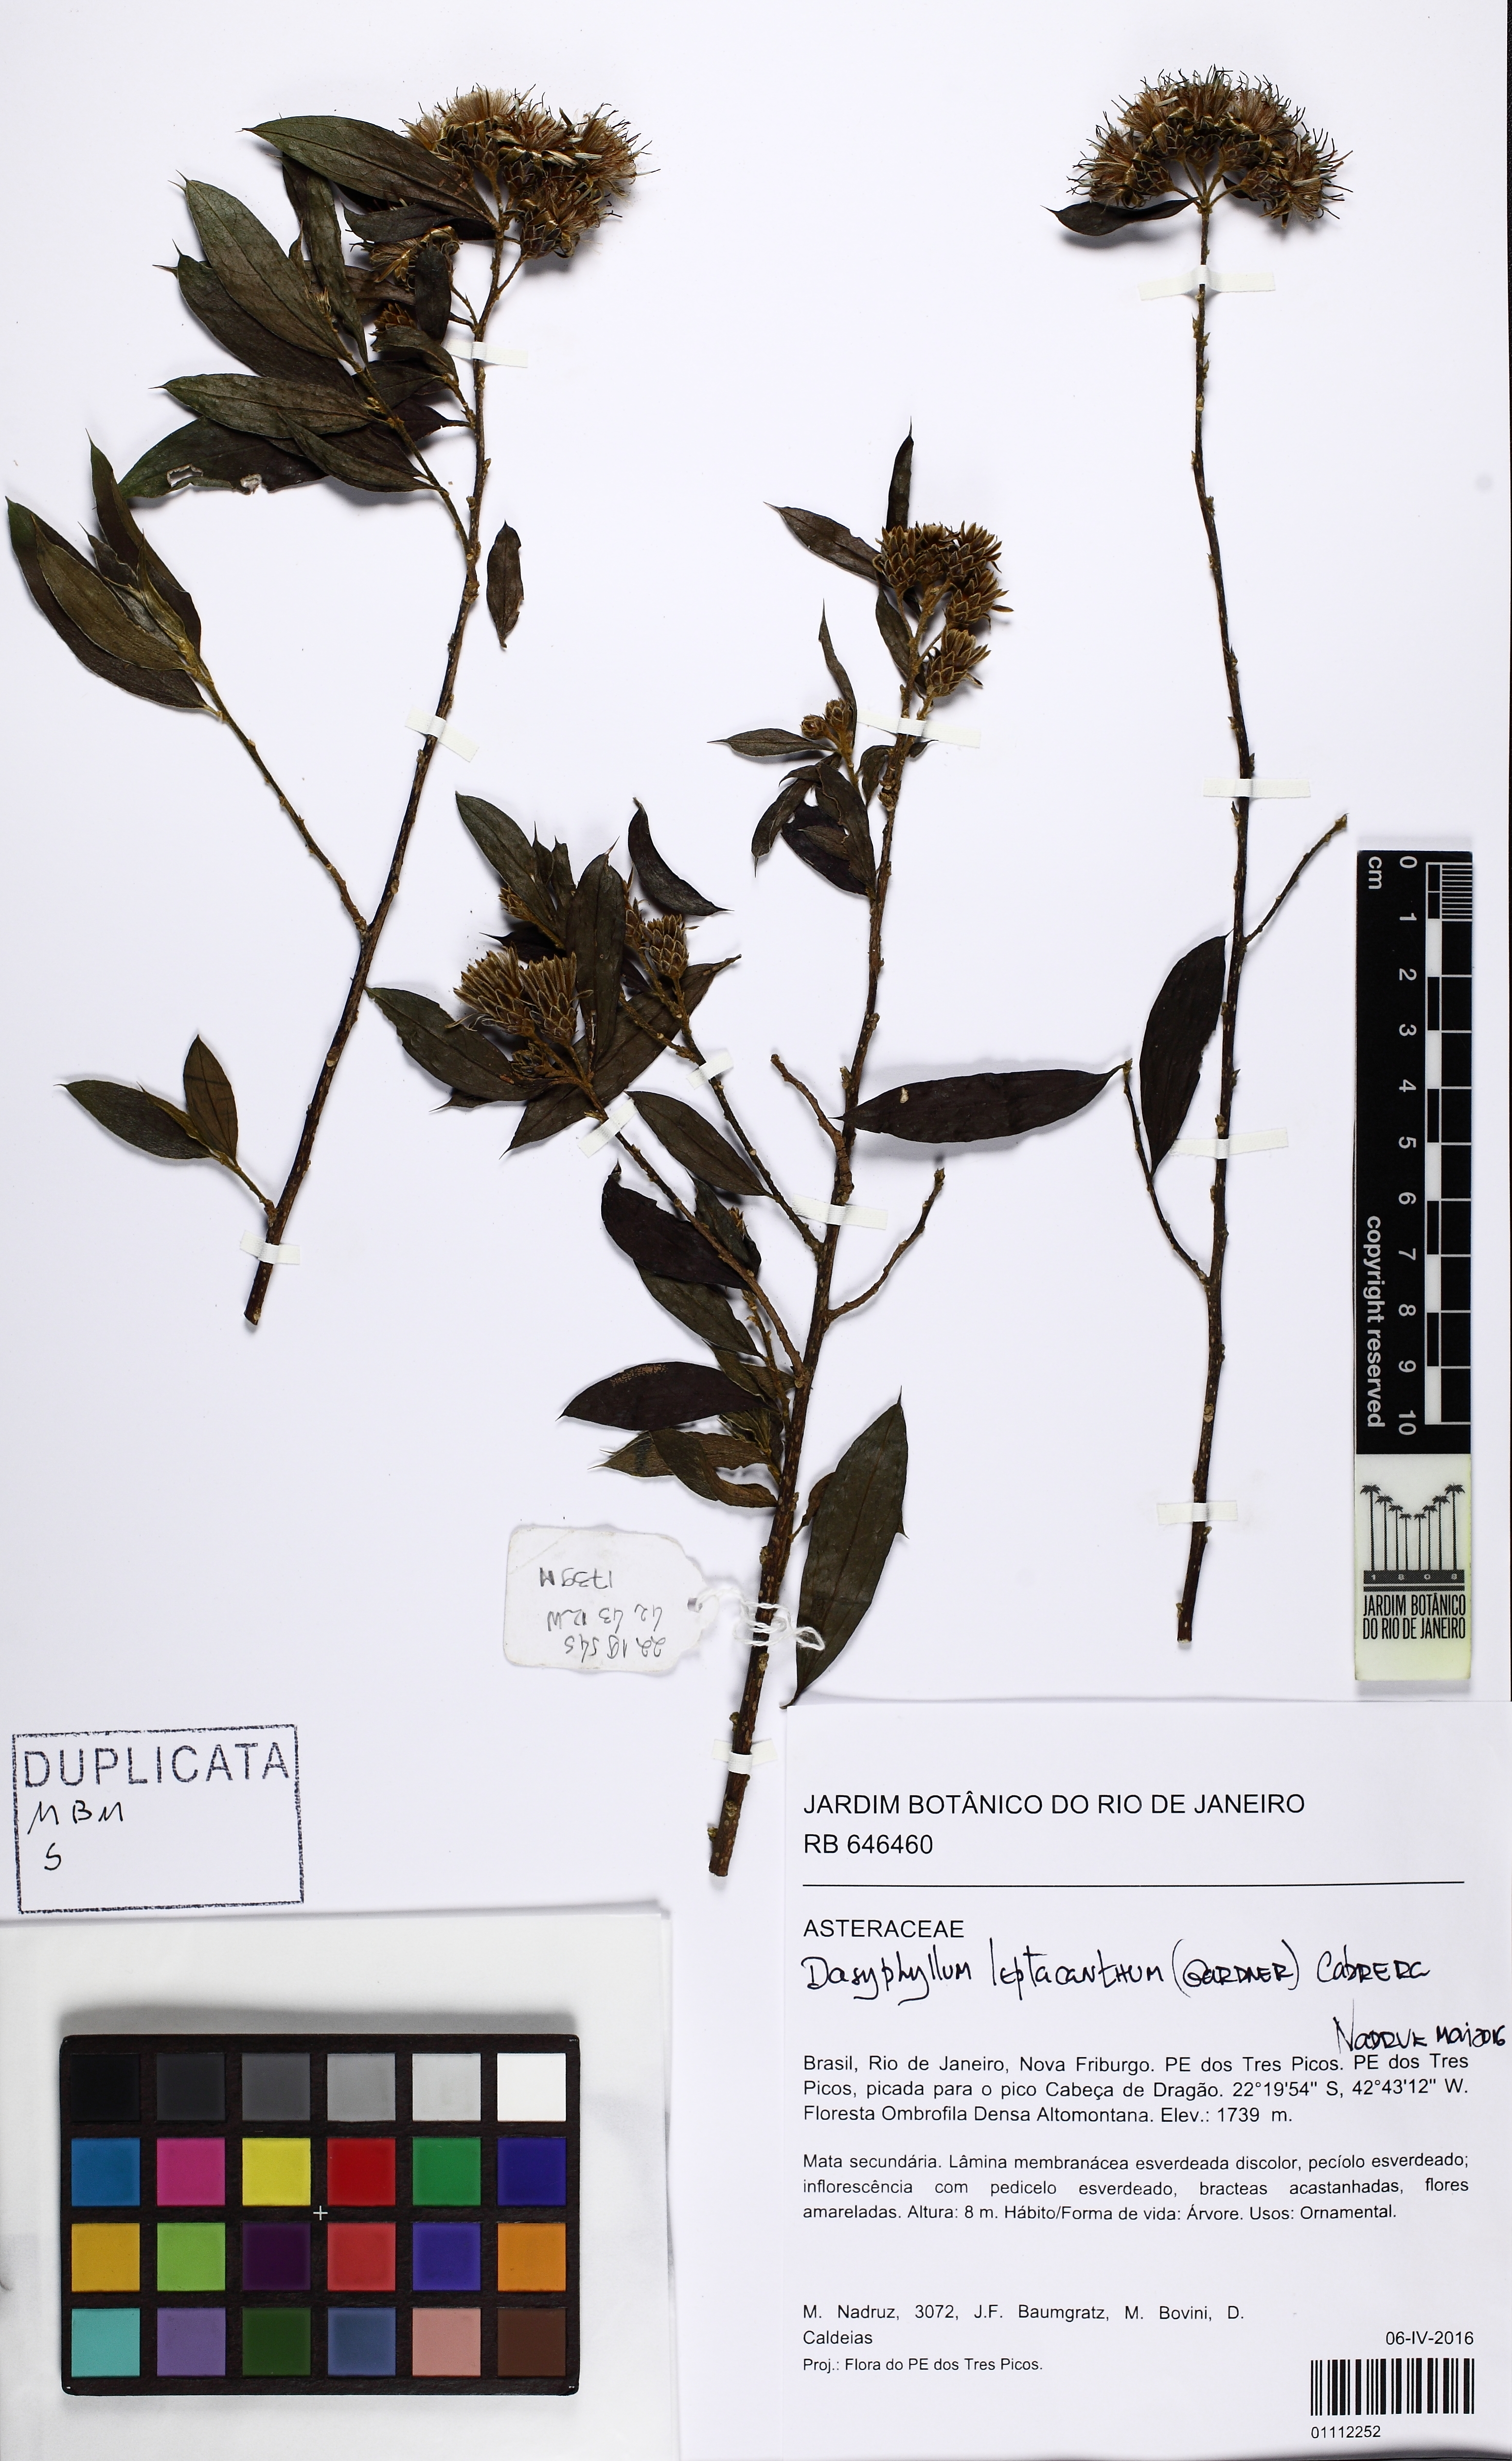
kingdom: Plantae
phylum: Tracheophyta
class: Magnoliopsida
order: Asterales
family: Asteraceae
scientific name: Asteraceae
